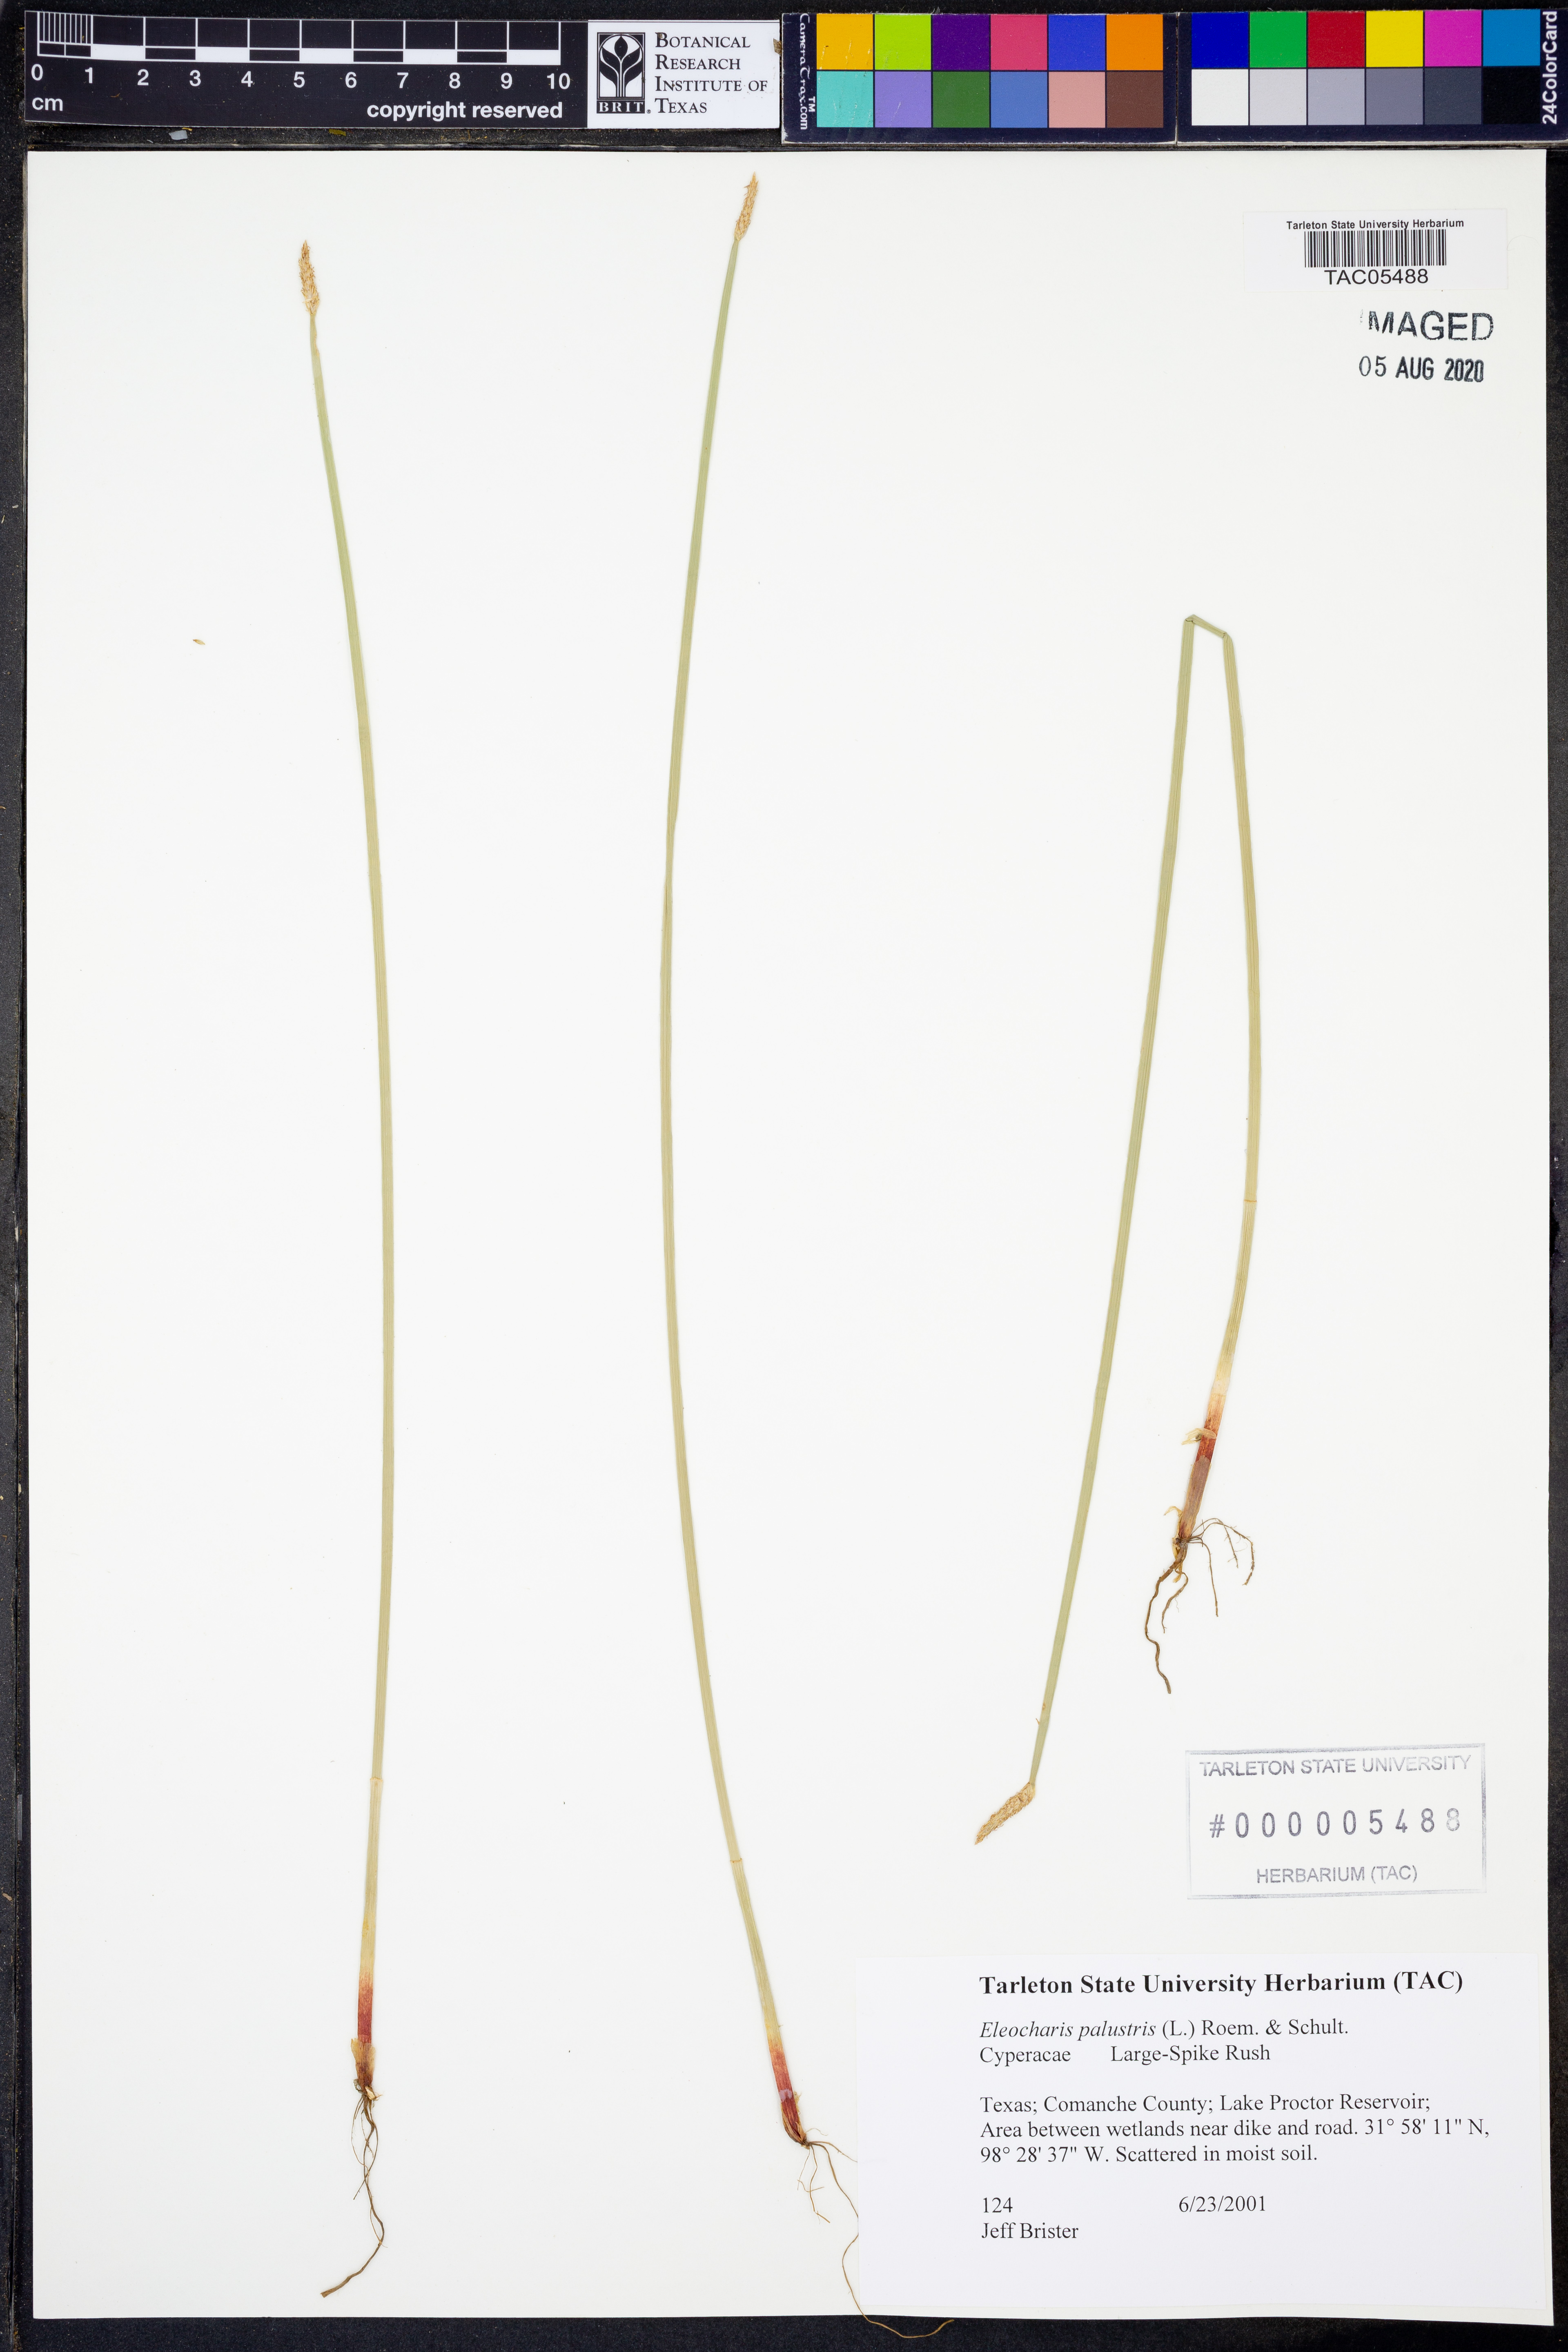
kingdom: Plantae
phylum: Tracheophyta
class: Liliopsida
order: Poales
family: Cyperaceae
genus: Eleocharis
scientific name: Eleocharis palustris
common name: Common spike-rush
